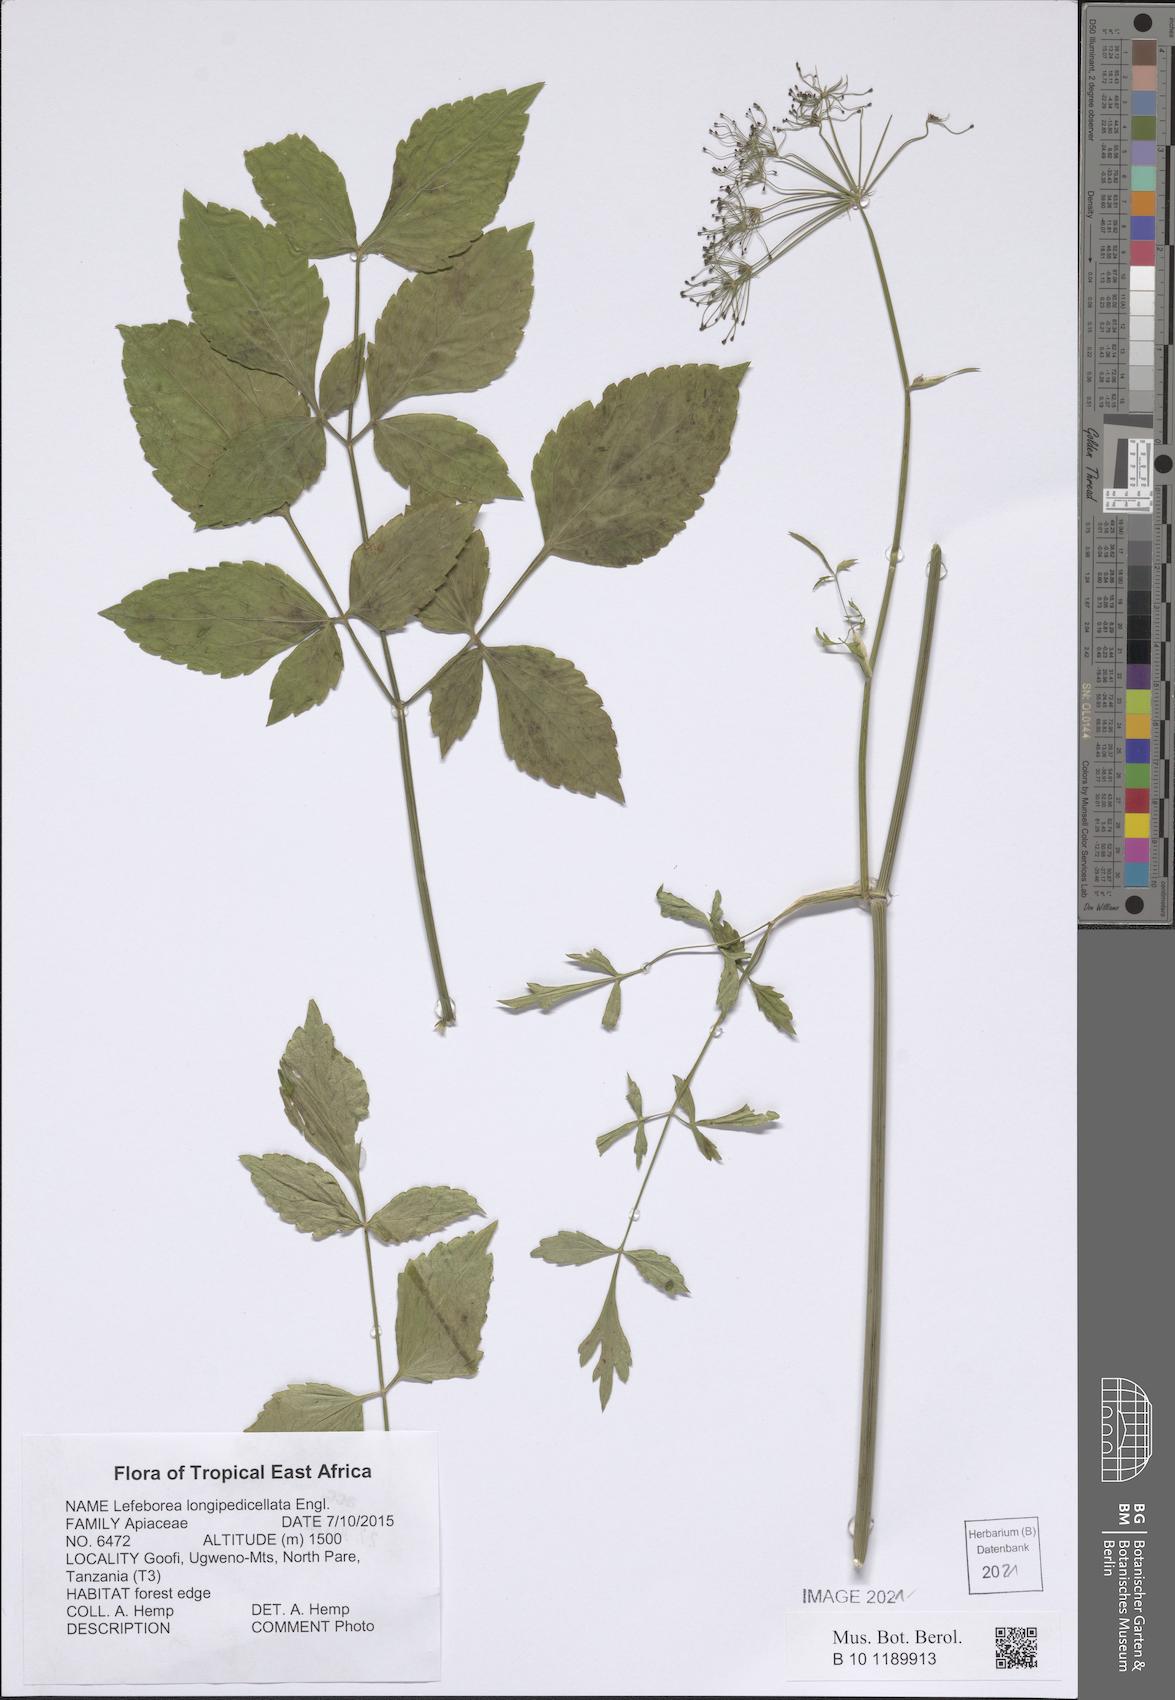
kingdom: Plantae
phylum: Tracheophyta
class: Magnoliopsida
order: Apiales
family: Apiaceae
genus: Lefebvrea
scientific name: Lefebvrea longipedicellata
